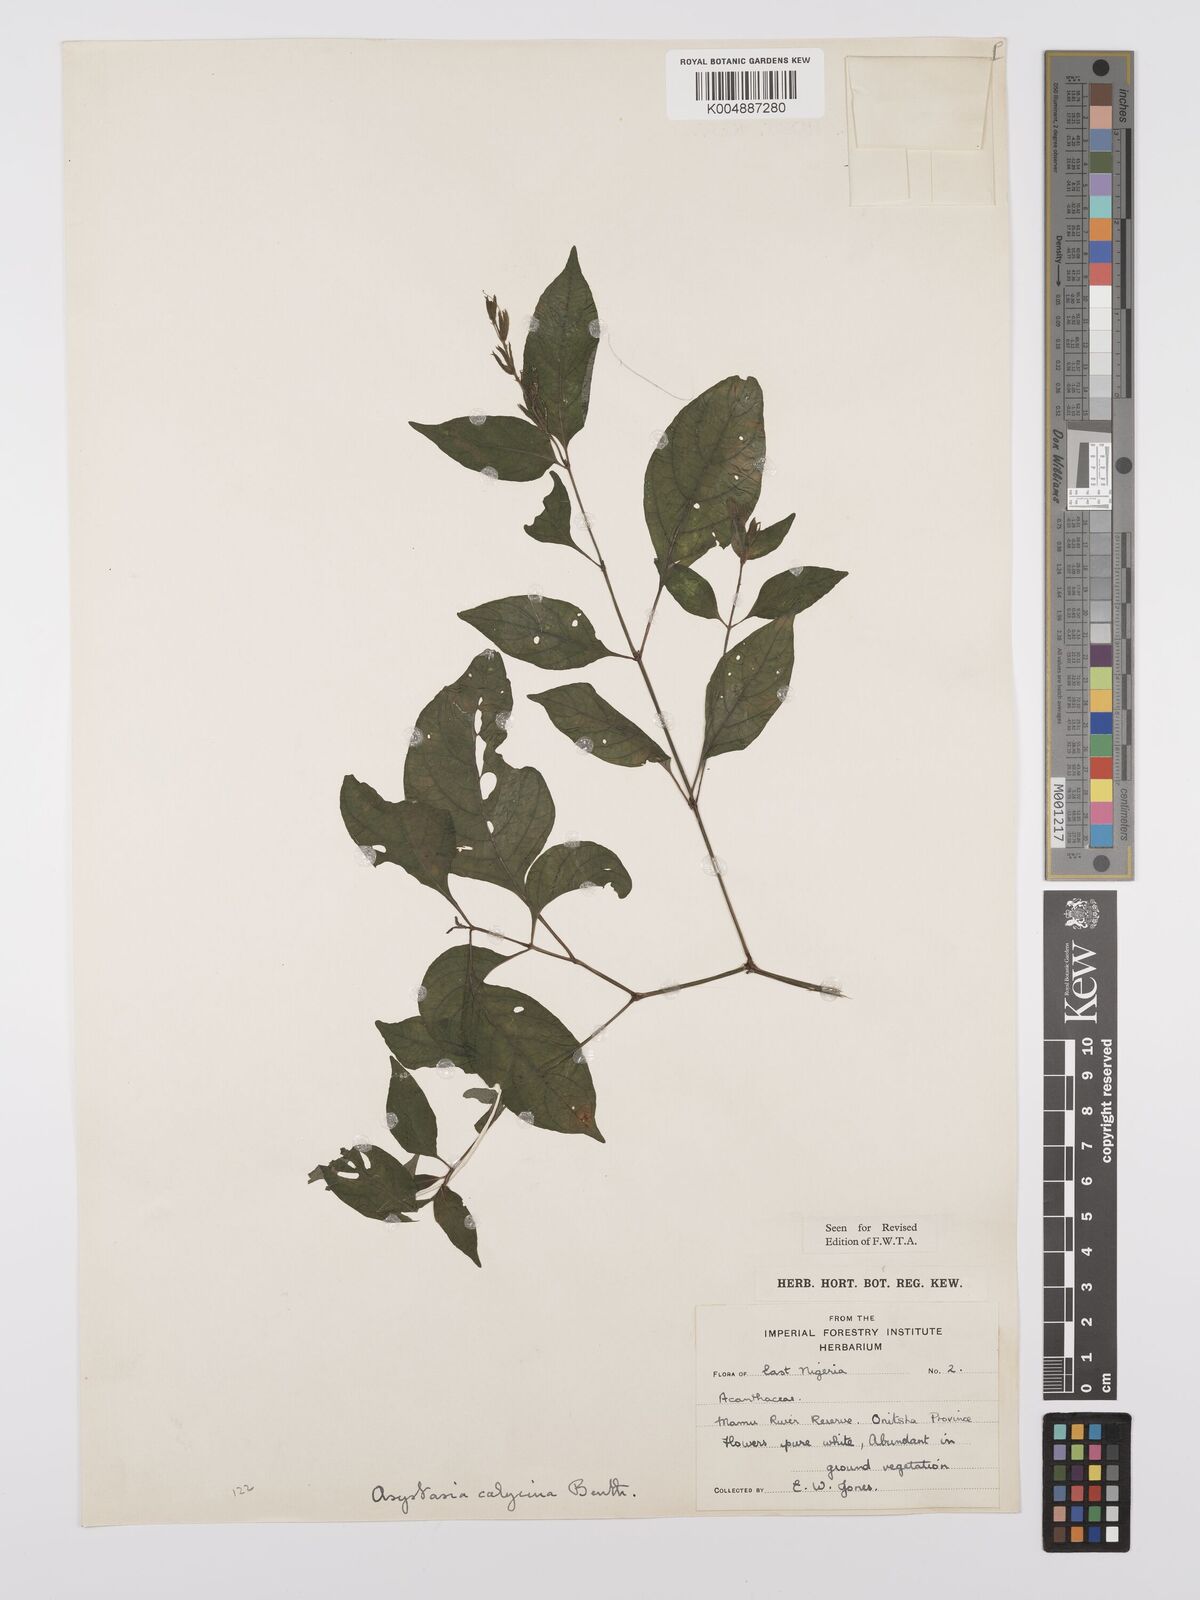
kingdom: Plantae
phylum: Tracheophyta
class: Magnoliopsida
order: Lamiales
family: Acanthaceae
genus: Asystasia
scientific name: Asystasia buettneri
